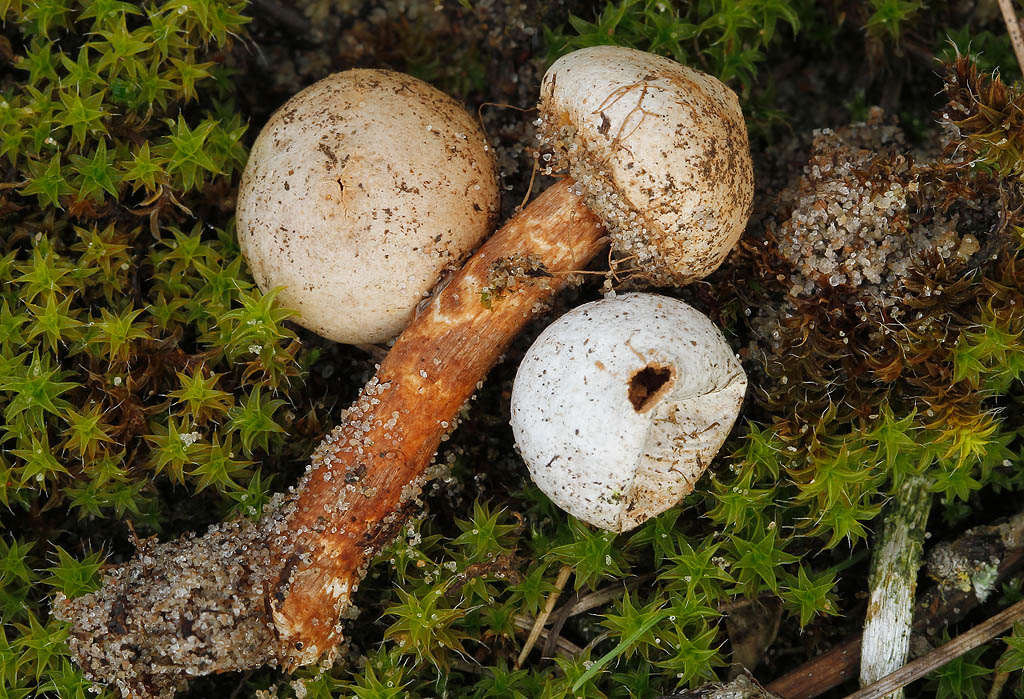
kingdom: Fungi
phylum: Basidiomycota
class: Agaricomycetes
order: Agaricales
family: Agaricaceae
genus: Tulostoma
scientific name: Tulostoma fimbriatum
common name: frynset stilkbovist
